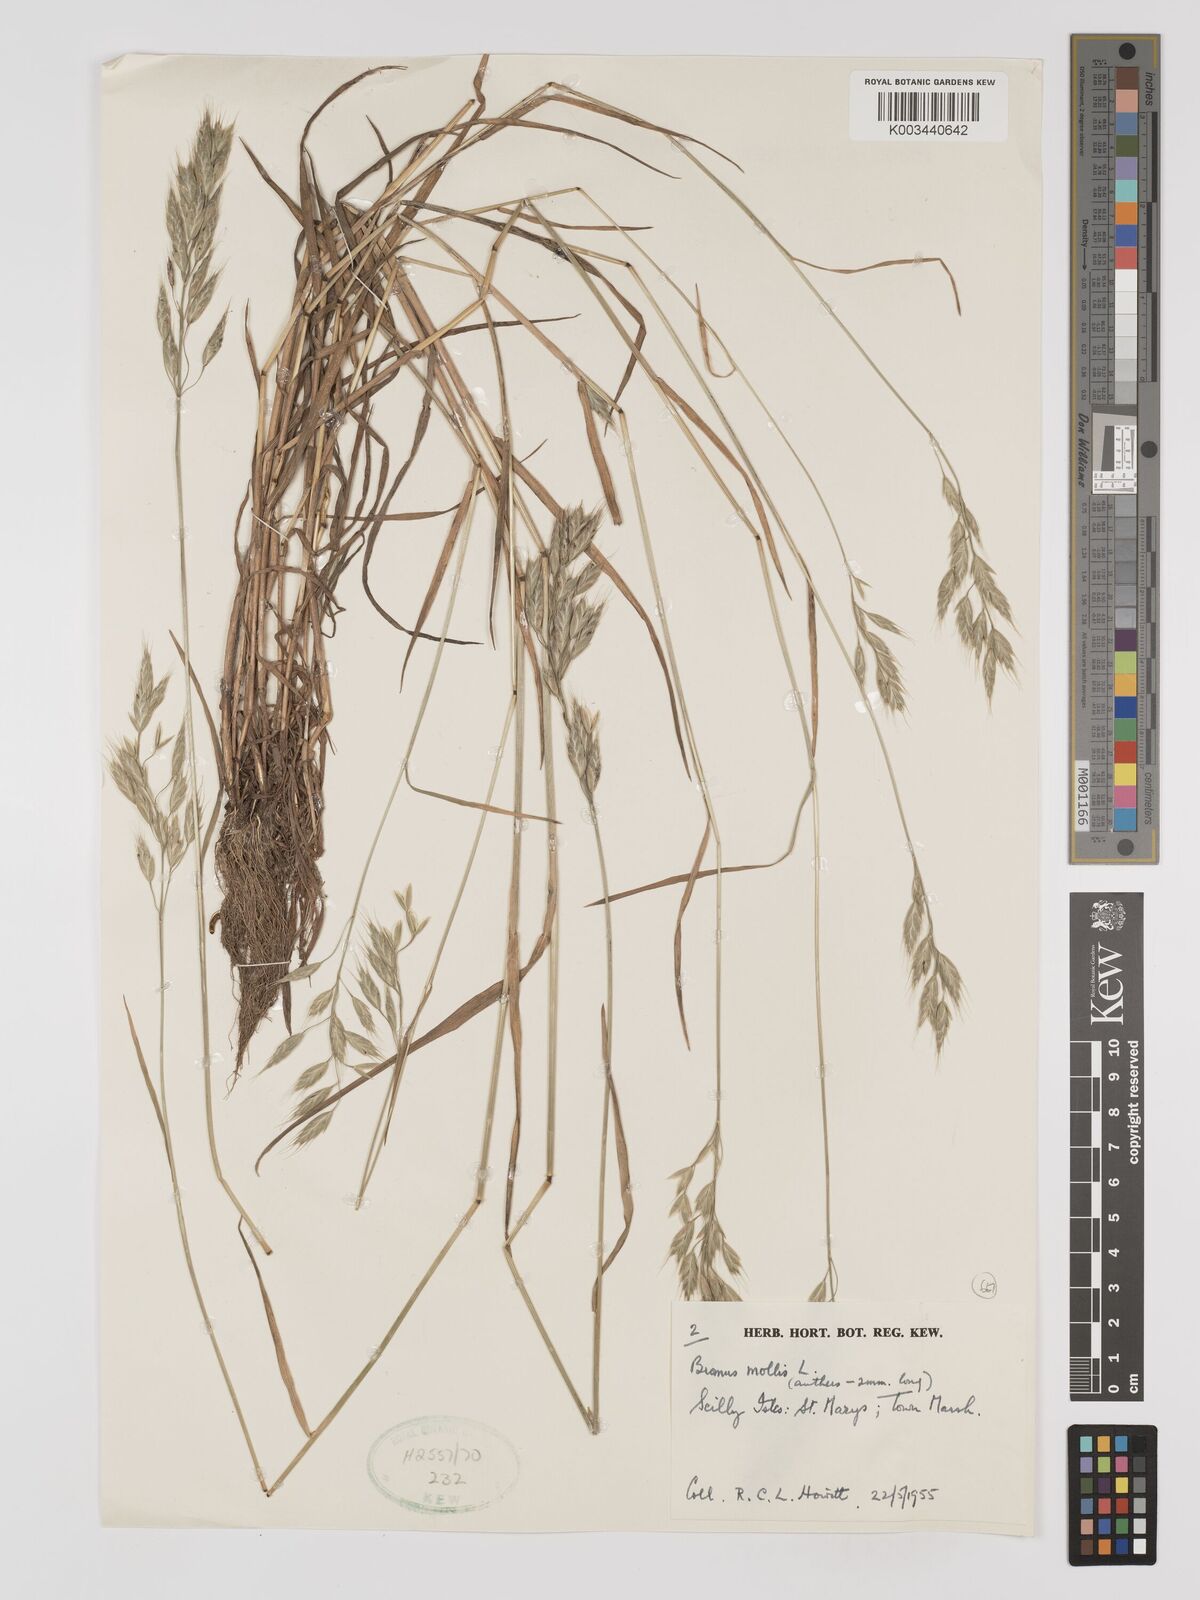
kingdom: Plantae
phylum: Tracheophyta
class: Liliopsida
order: Poales
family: Poaceae
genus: Bromus
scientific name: Bromus hordeaceus
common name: Soft brome
